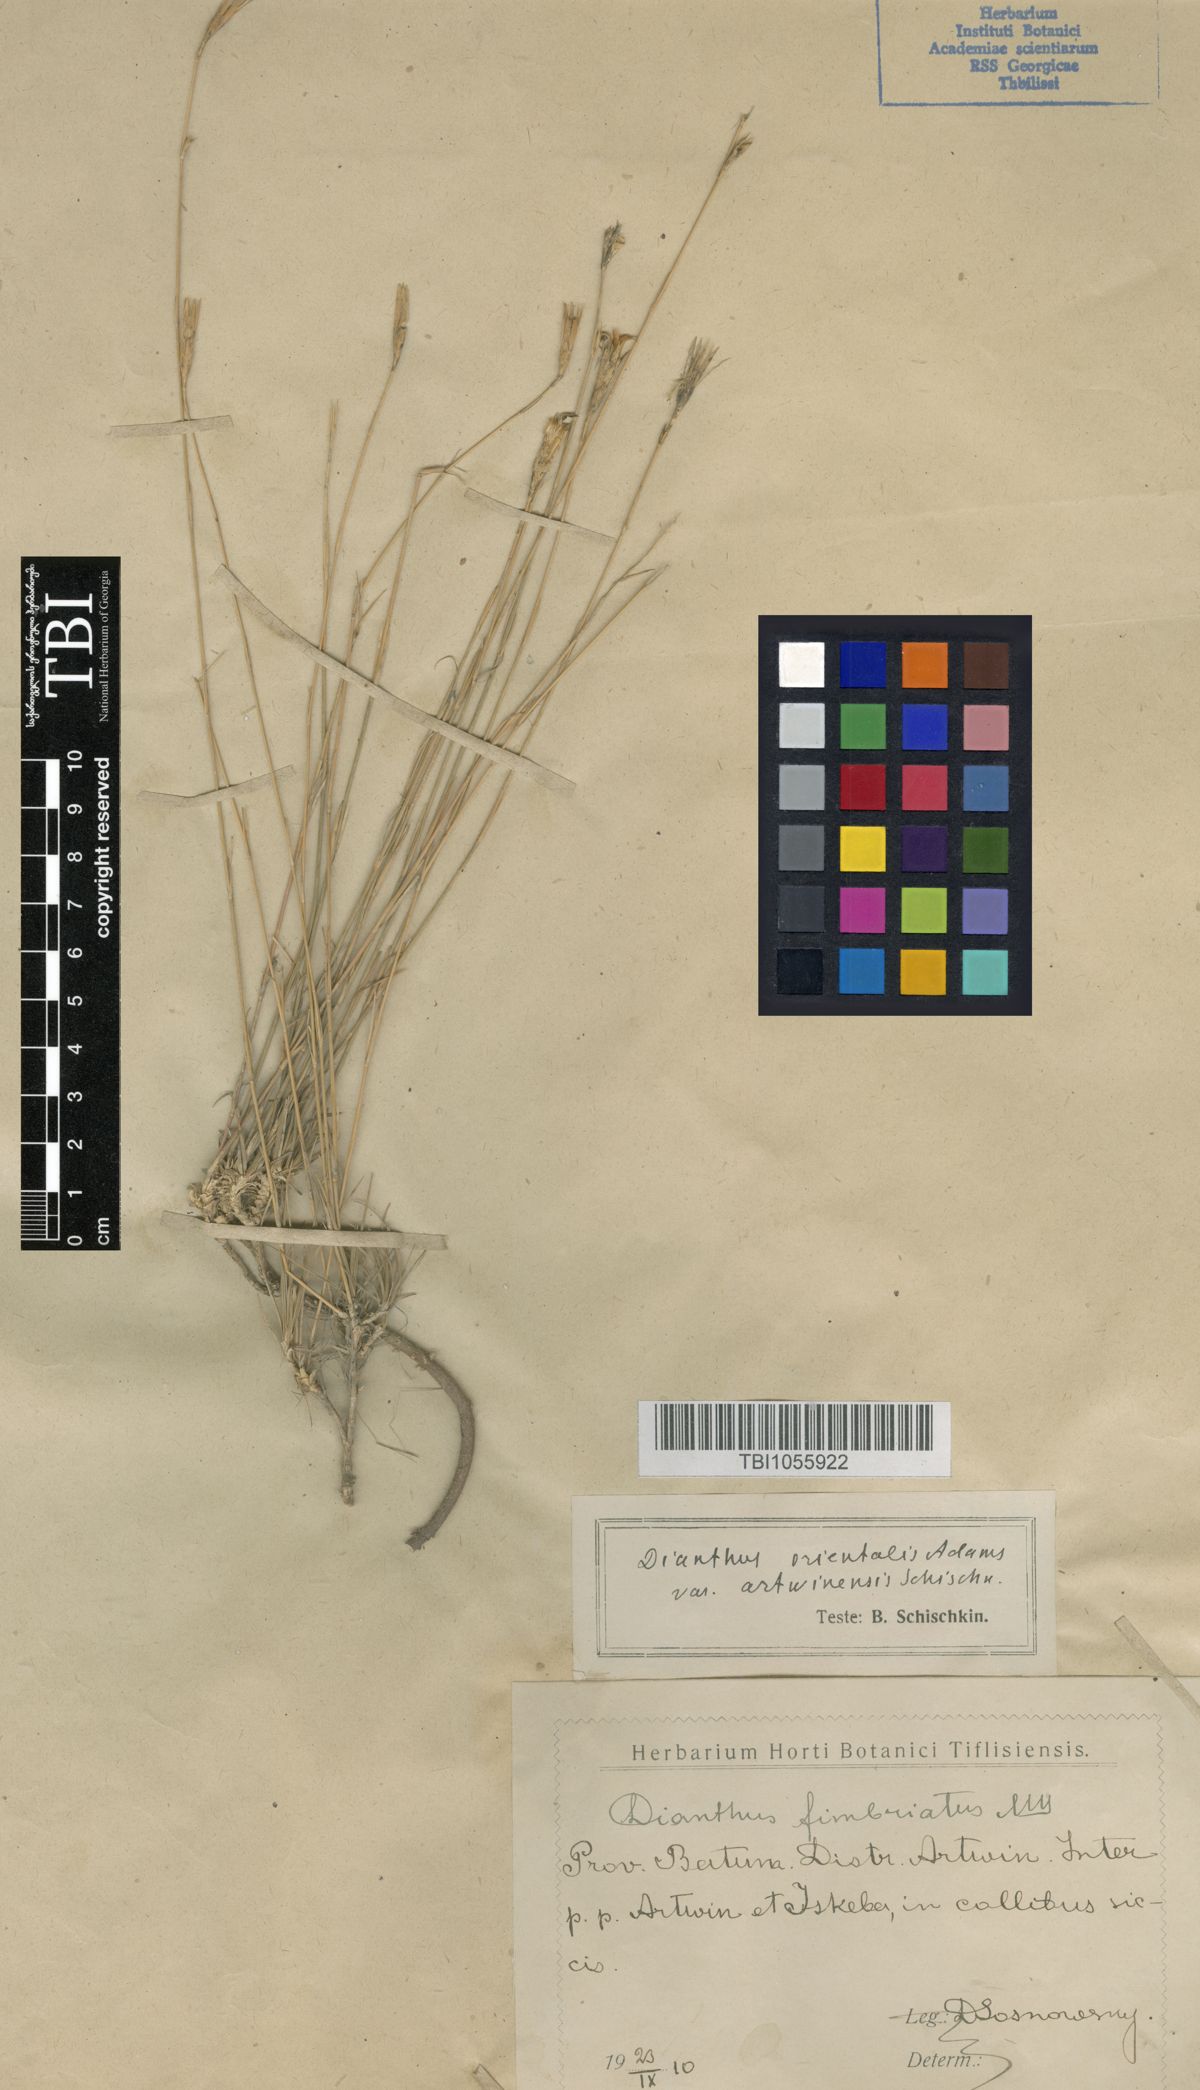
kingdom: Plantae
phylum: Tracheophyta
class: Magnoliopsida
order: Caryophyllales
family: Caryophyllaceae
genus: Dianthus
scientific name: Dianthus orientalis
